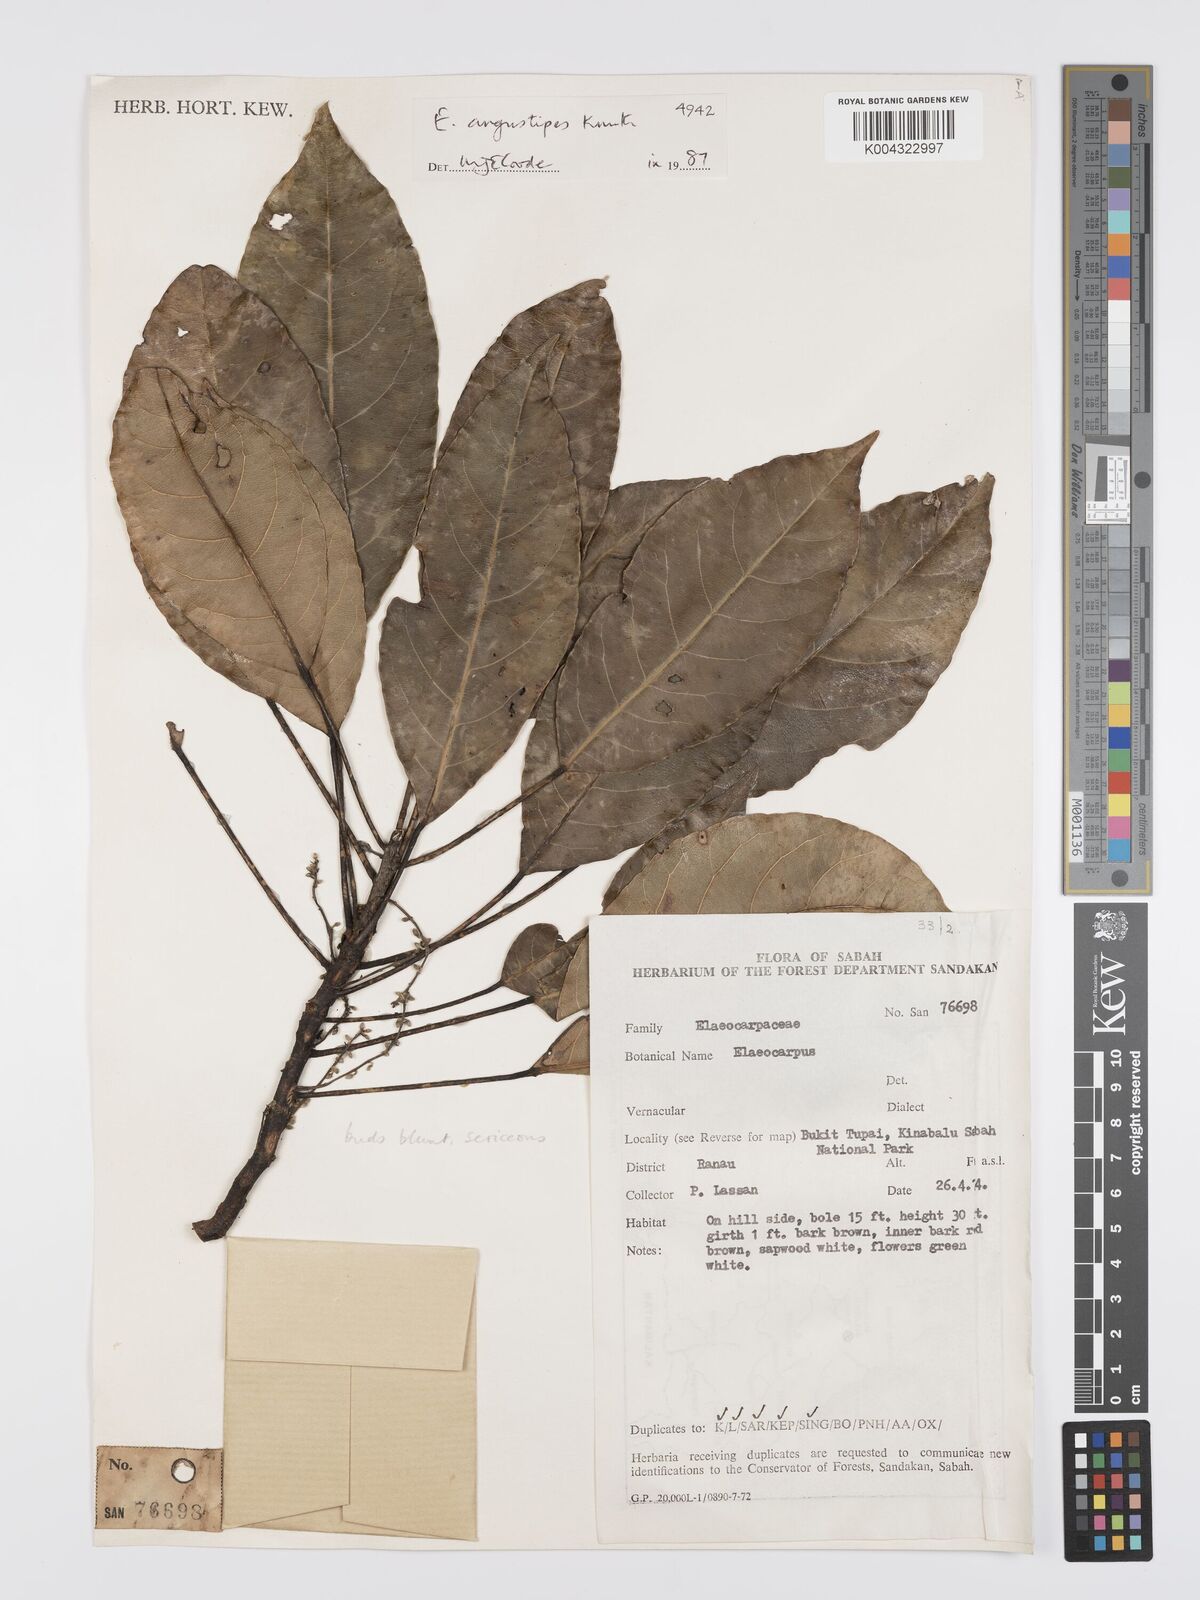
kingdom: Plantae
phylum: Tracheophyta
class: Magnoliopsida
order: Oxalidales
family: Elaeocarpaceae
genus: Elaeocarpus
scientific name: Elaeocarpus angustipes
